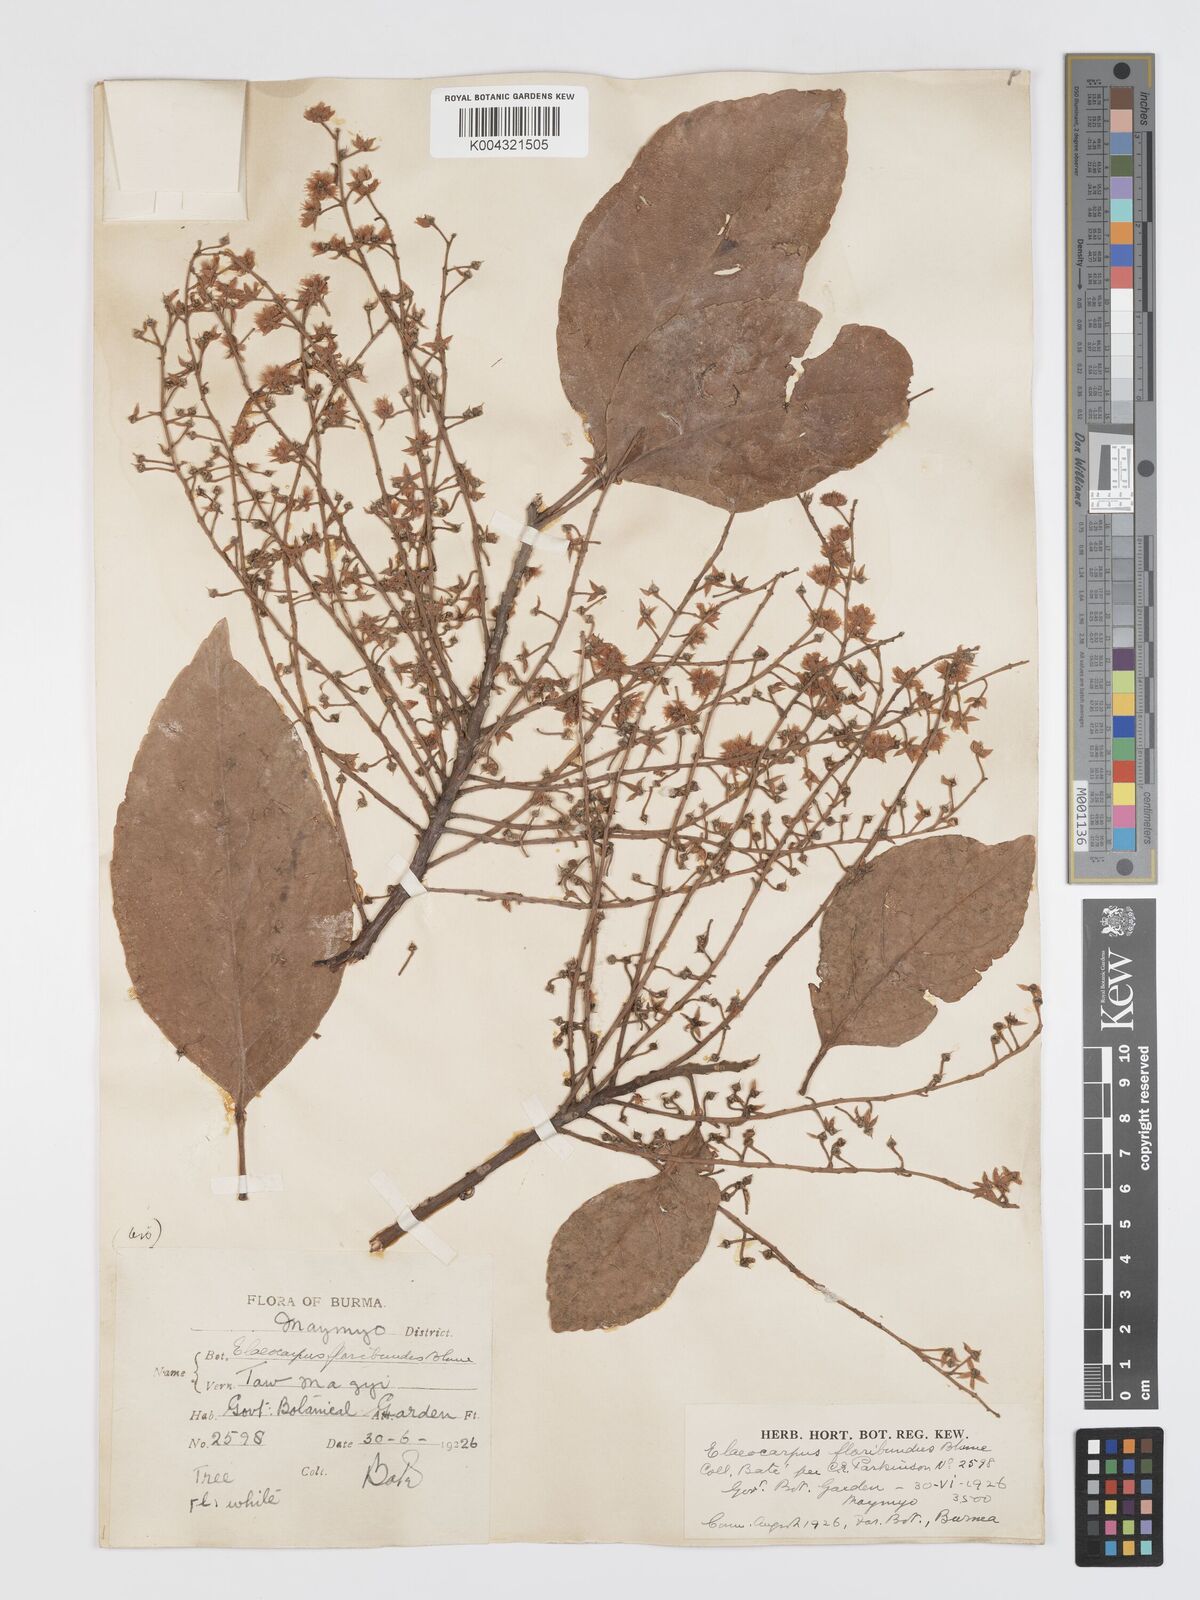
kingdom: Plantae
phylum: Tracheophyta
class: Magnoliopsida
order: Oxalidales
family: Elaeocarpaceae
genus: Elaeocarpus
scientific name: Elaeocarpus floribundus
